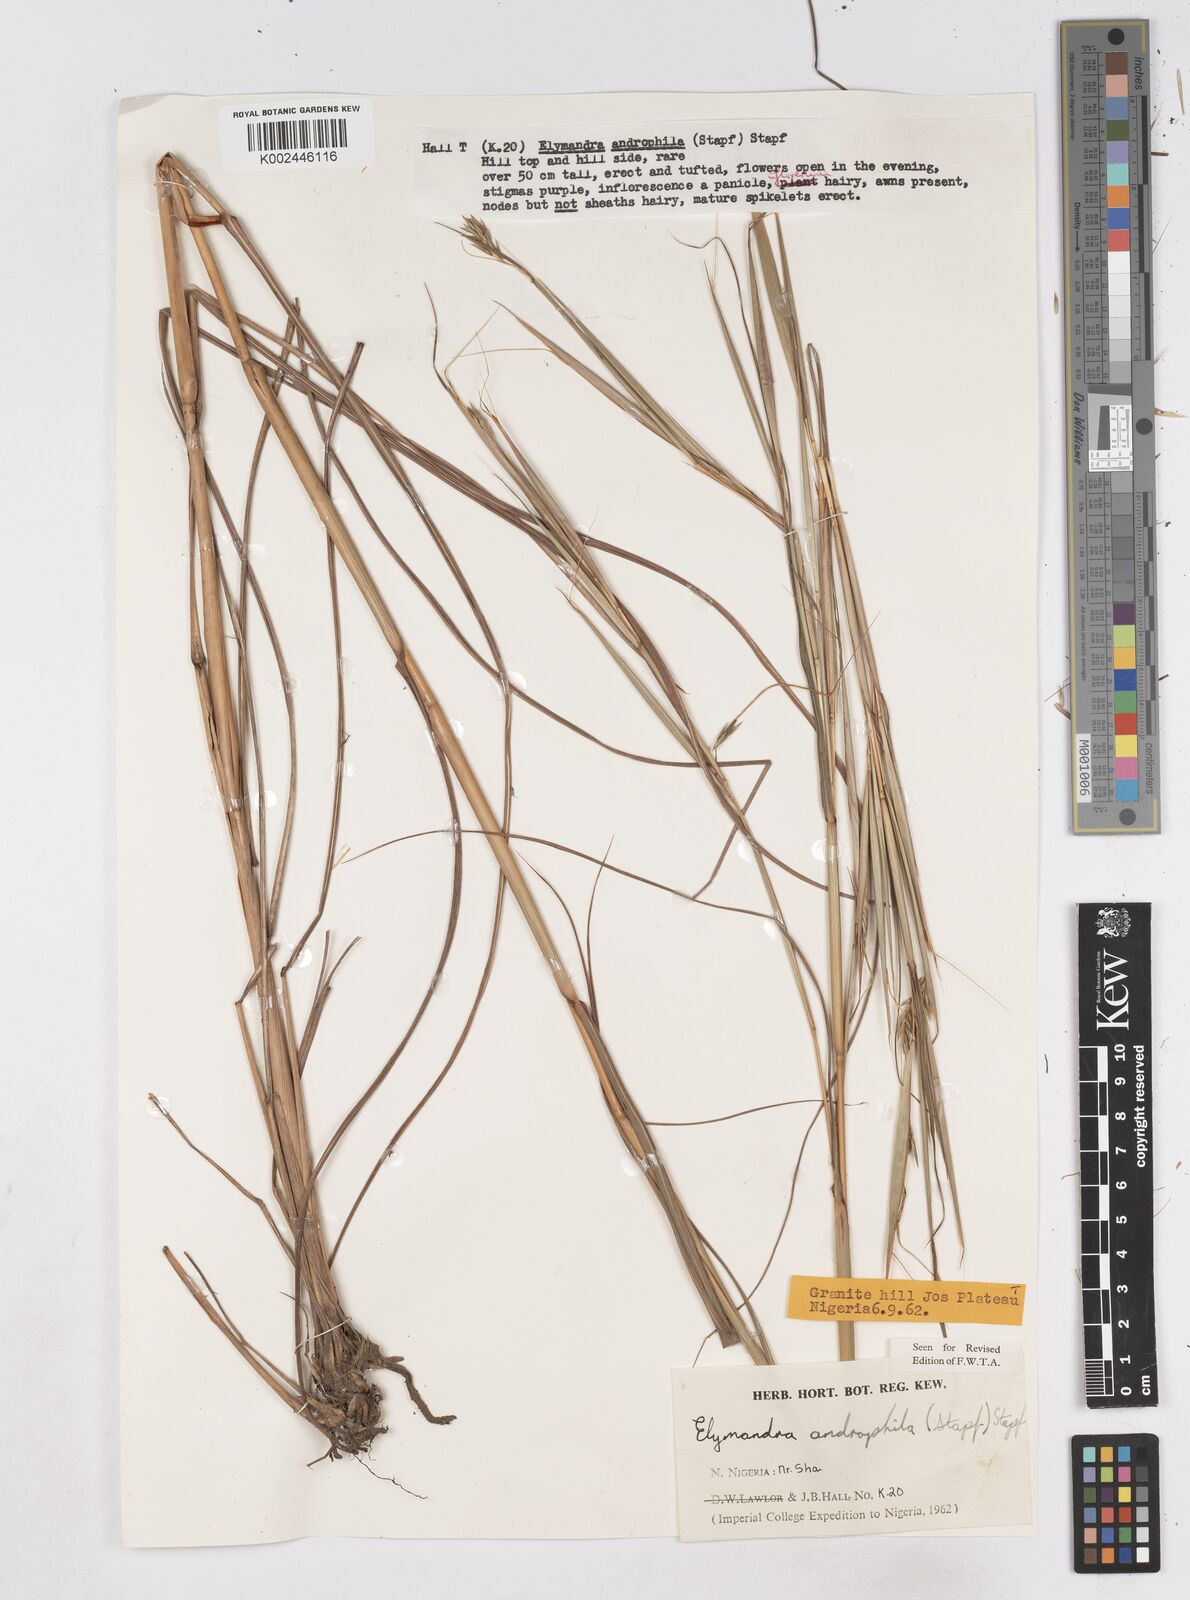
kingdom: Plantae
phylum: Tracheophyta
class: Liliopsida
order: Poales
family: Poaceae
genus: Elymandra
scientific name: Elymandra androphila
